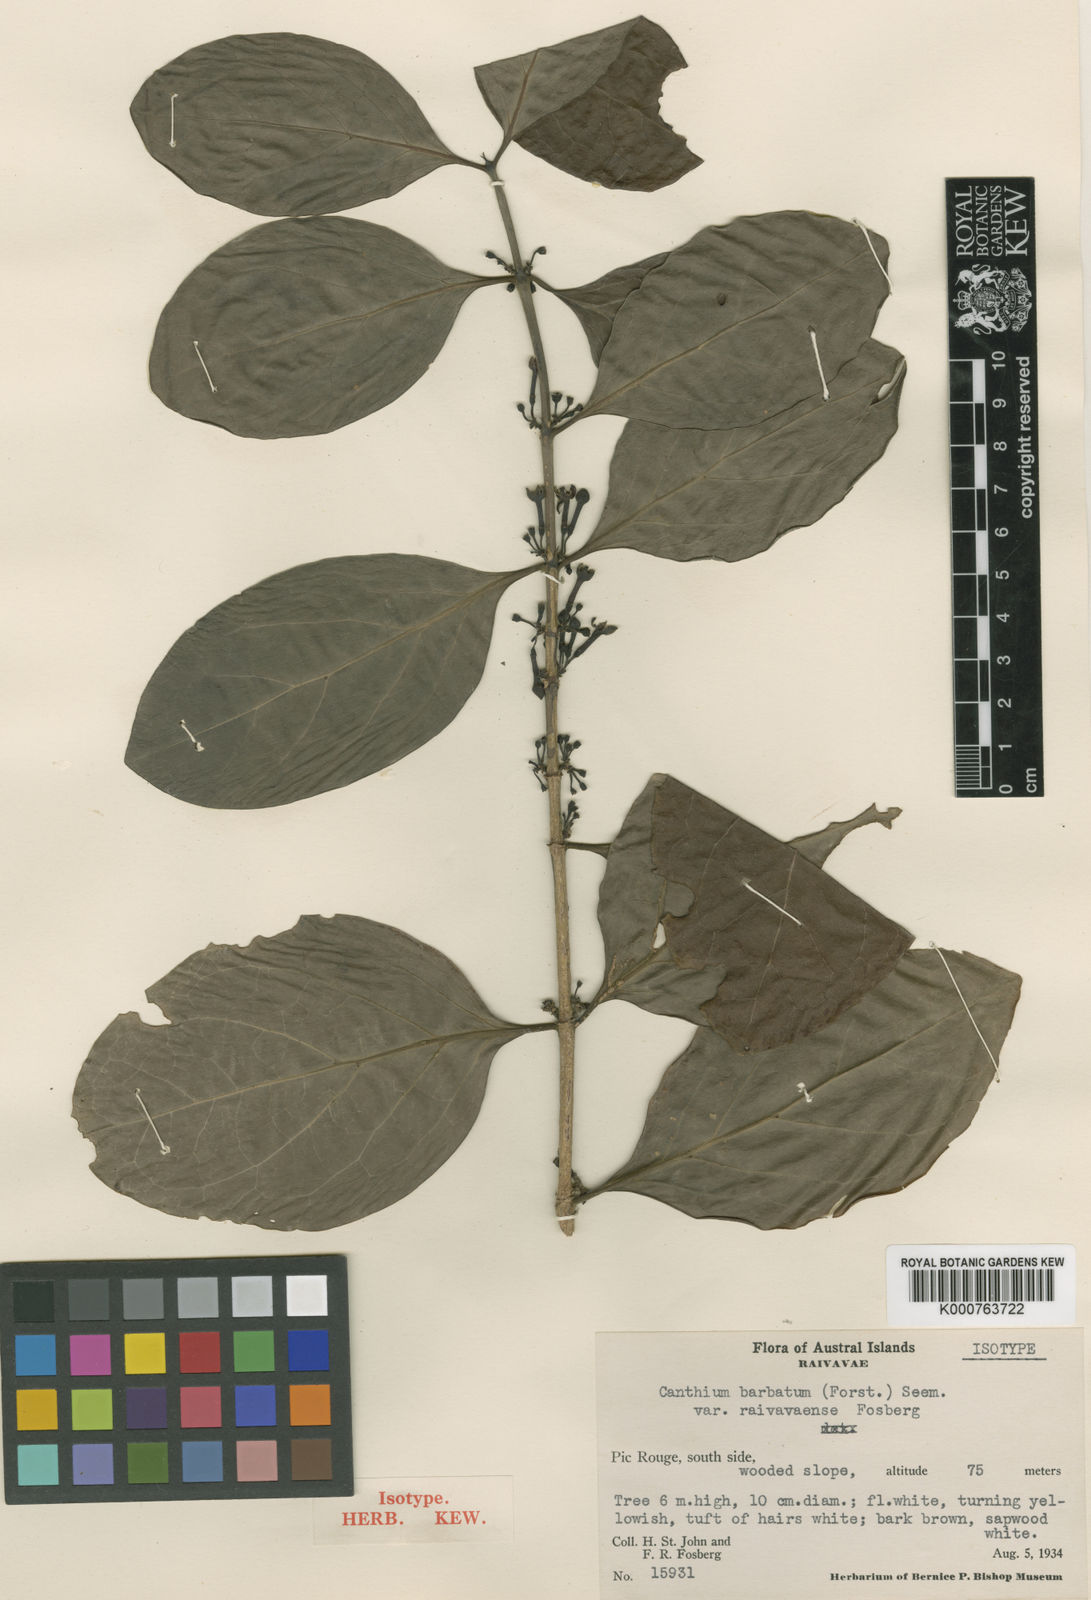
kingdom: Plantae
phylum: Tracheophyta
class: Magnoliopsida
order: Gentianales
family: Rubiaceae
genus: Cyclophyllum
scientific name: Cyclophyllum
